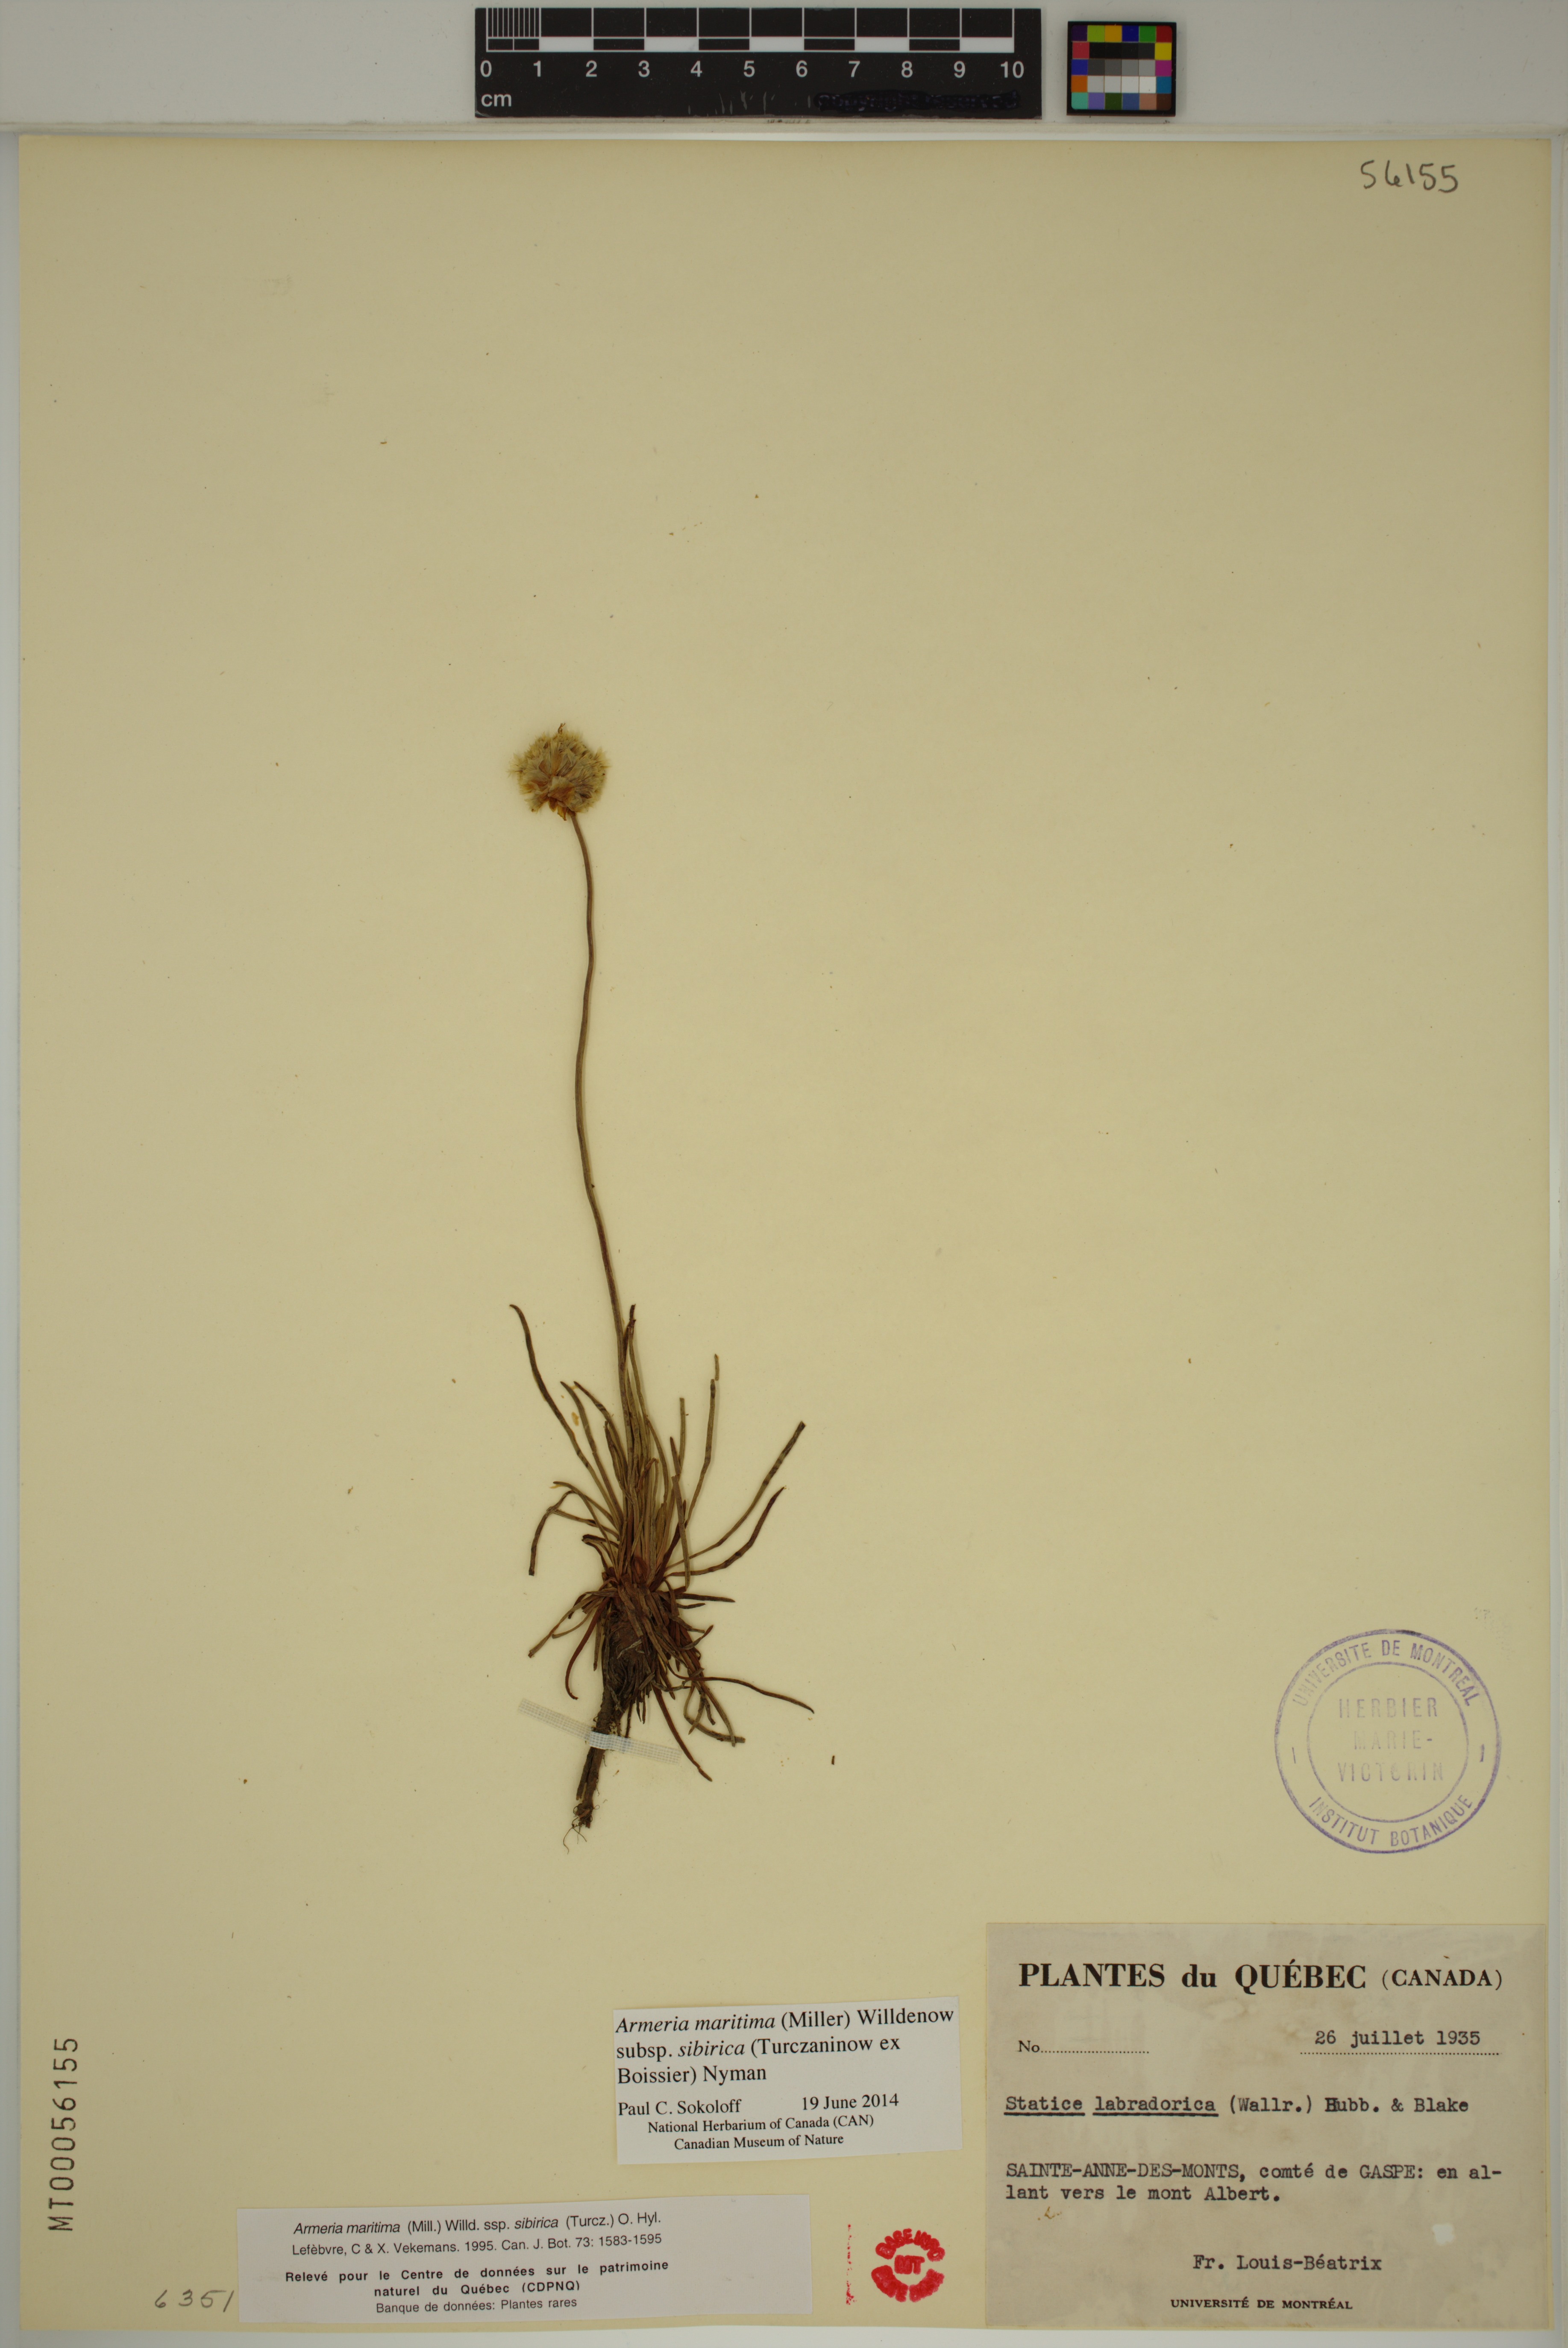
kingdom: Plantae
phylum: Tracheophyta
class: Magnoliopsida
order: Caryophyllales
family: Plumbaginaceae
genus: Armeria
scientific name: Armeria maritima
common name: Thrift
